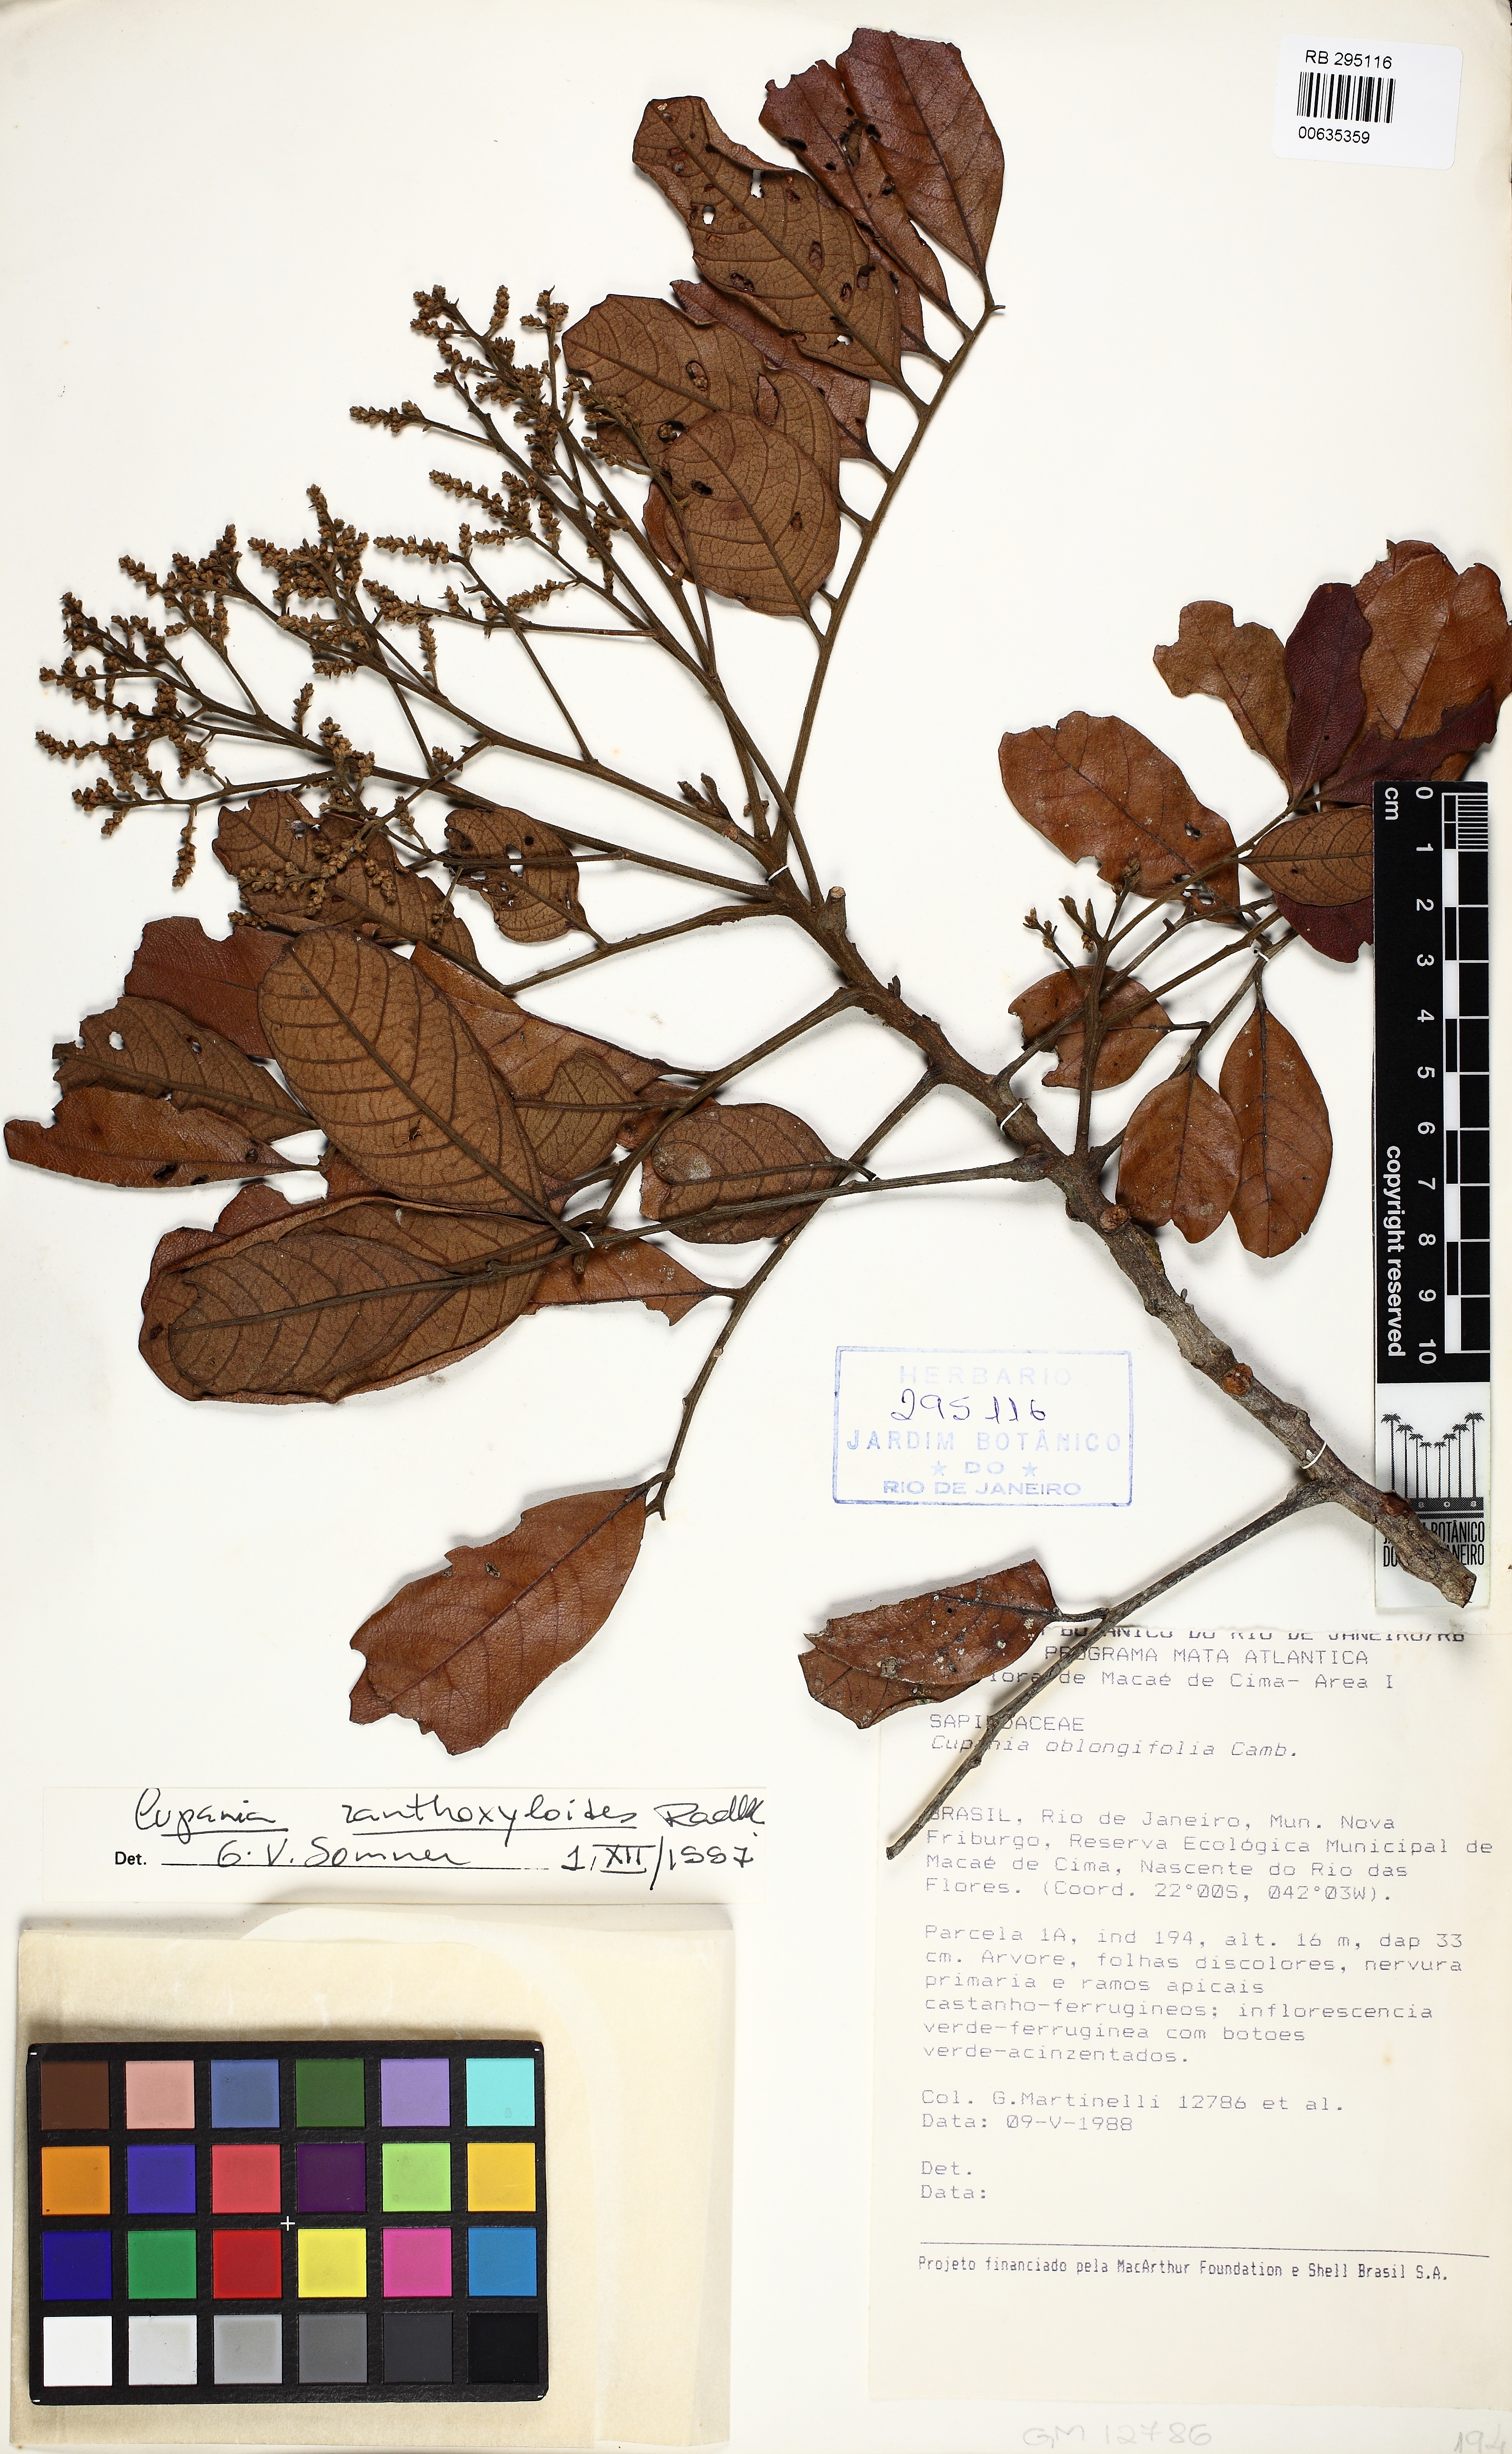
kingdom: Plantae
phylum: Tracheophyta
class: Magnoliopsida
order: Sapindales
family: Sapindaceae
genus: Cupania
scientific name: Cupania zanthoxyloides
